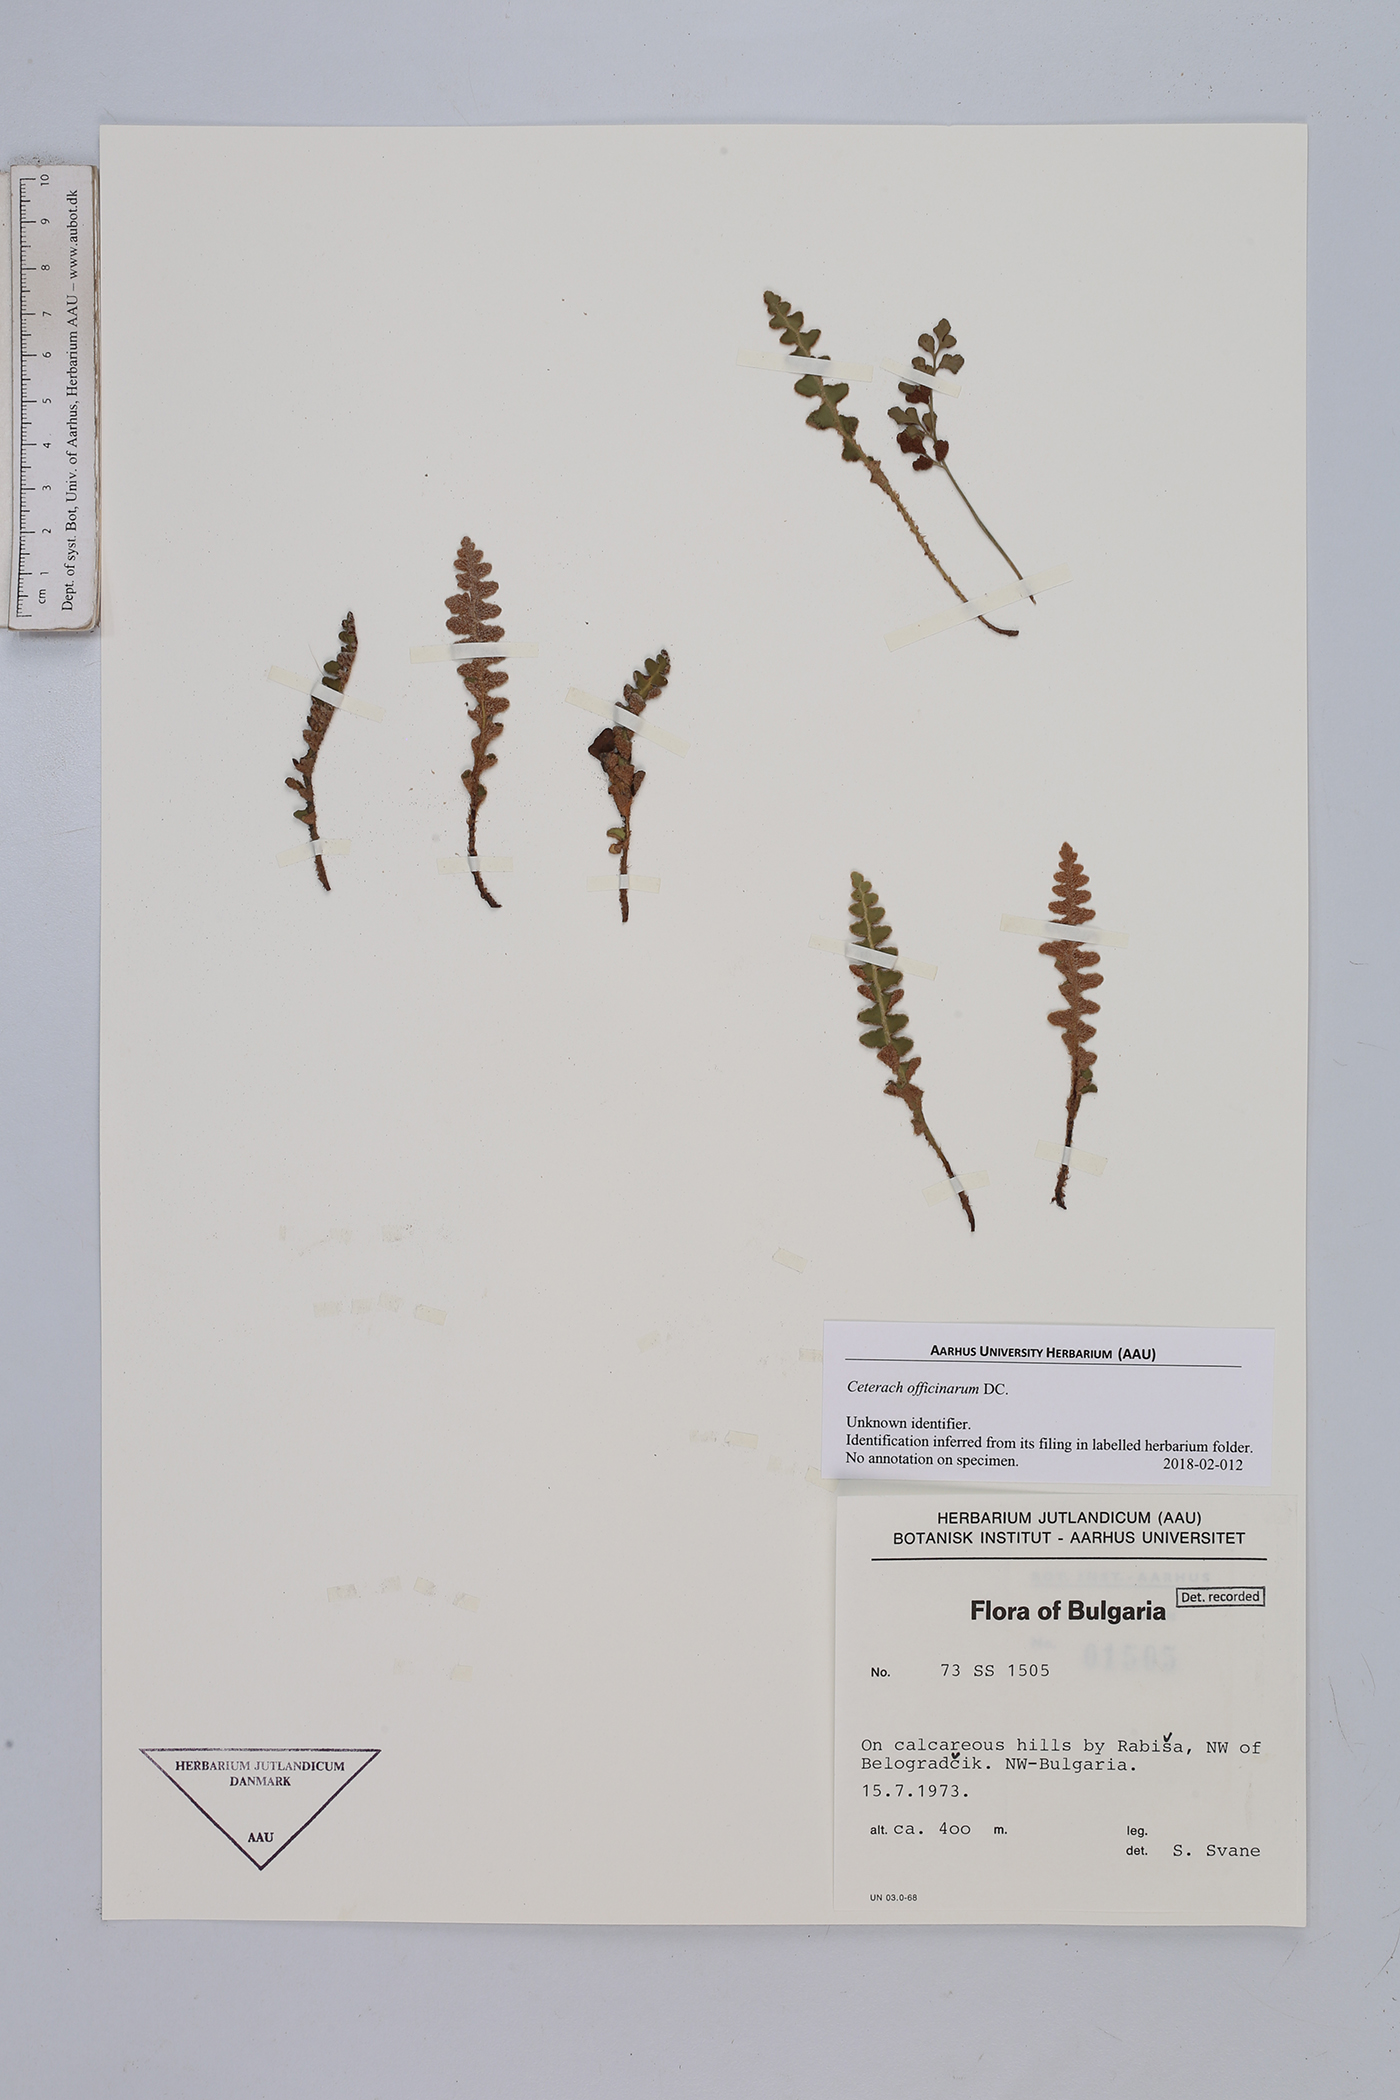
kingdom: Plantae
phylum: Tracheophyta
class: Polypodiopsida
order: Polypodiales
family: Aspleniaceae
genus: Asplenium
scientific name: Asplenium ceterach
